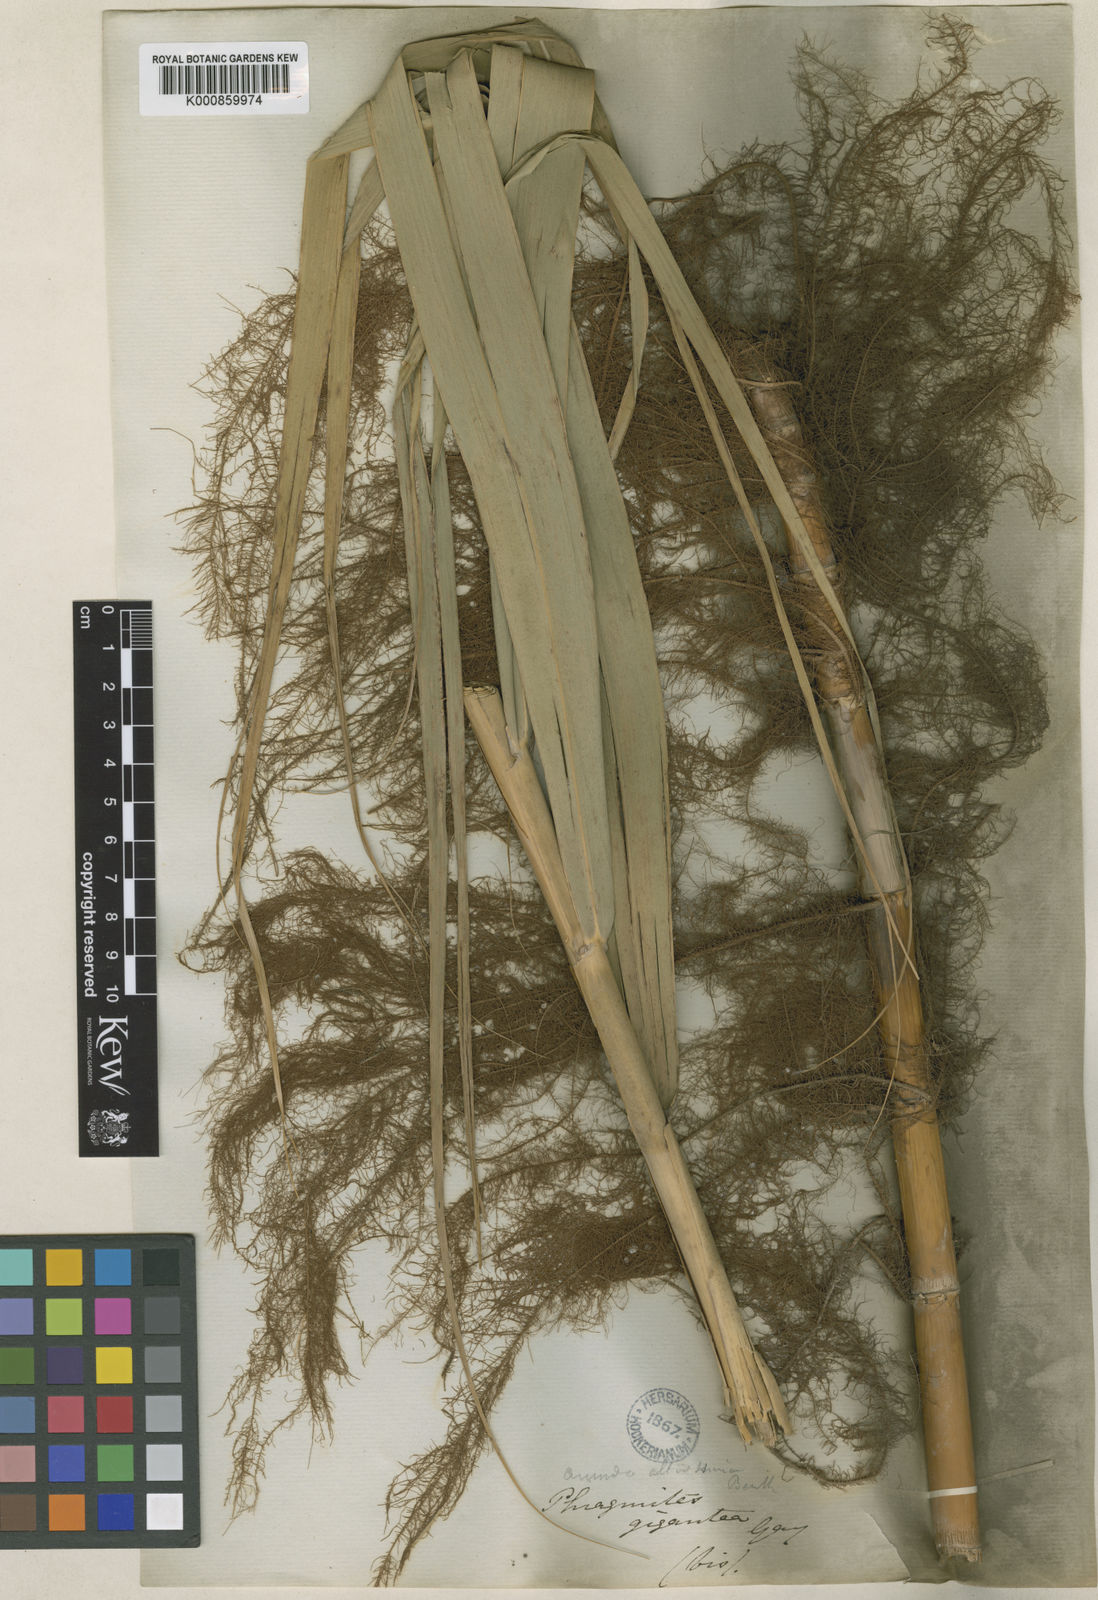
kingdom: Plantae
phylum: Tracheophyta
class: Liliopsida
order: Poales
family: Poaceae
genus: Phragmites
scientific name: Phragmites australis
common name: Common reed
